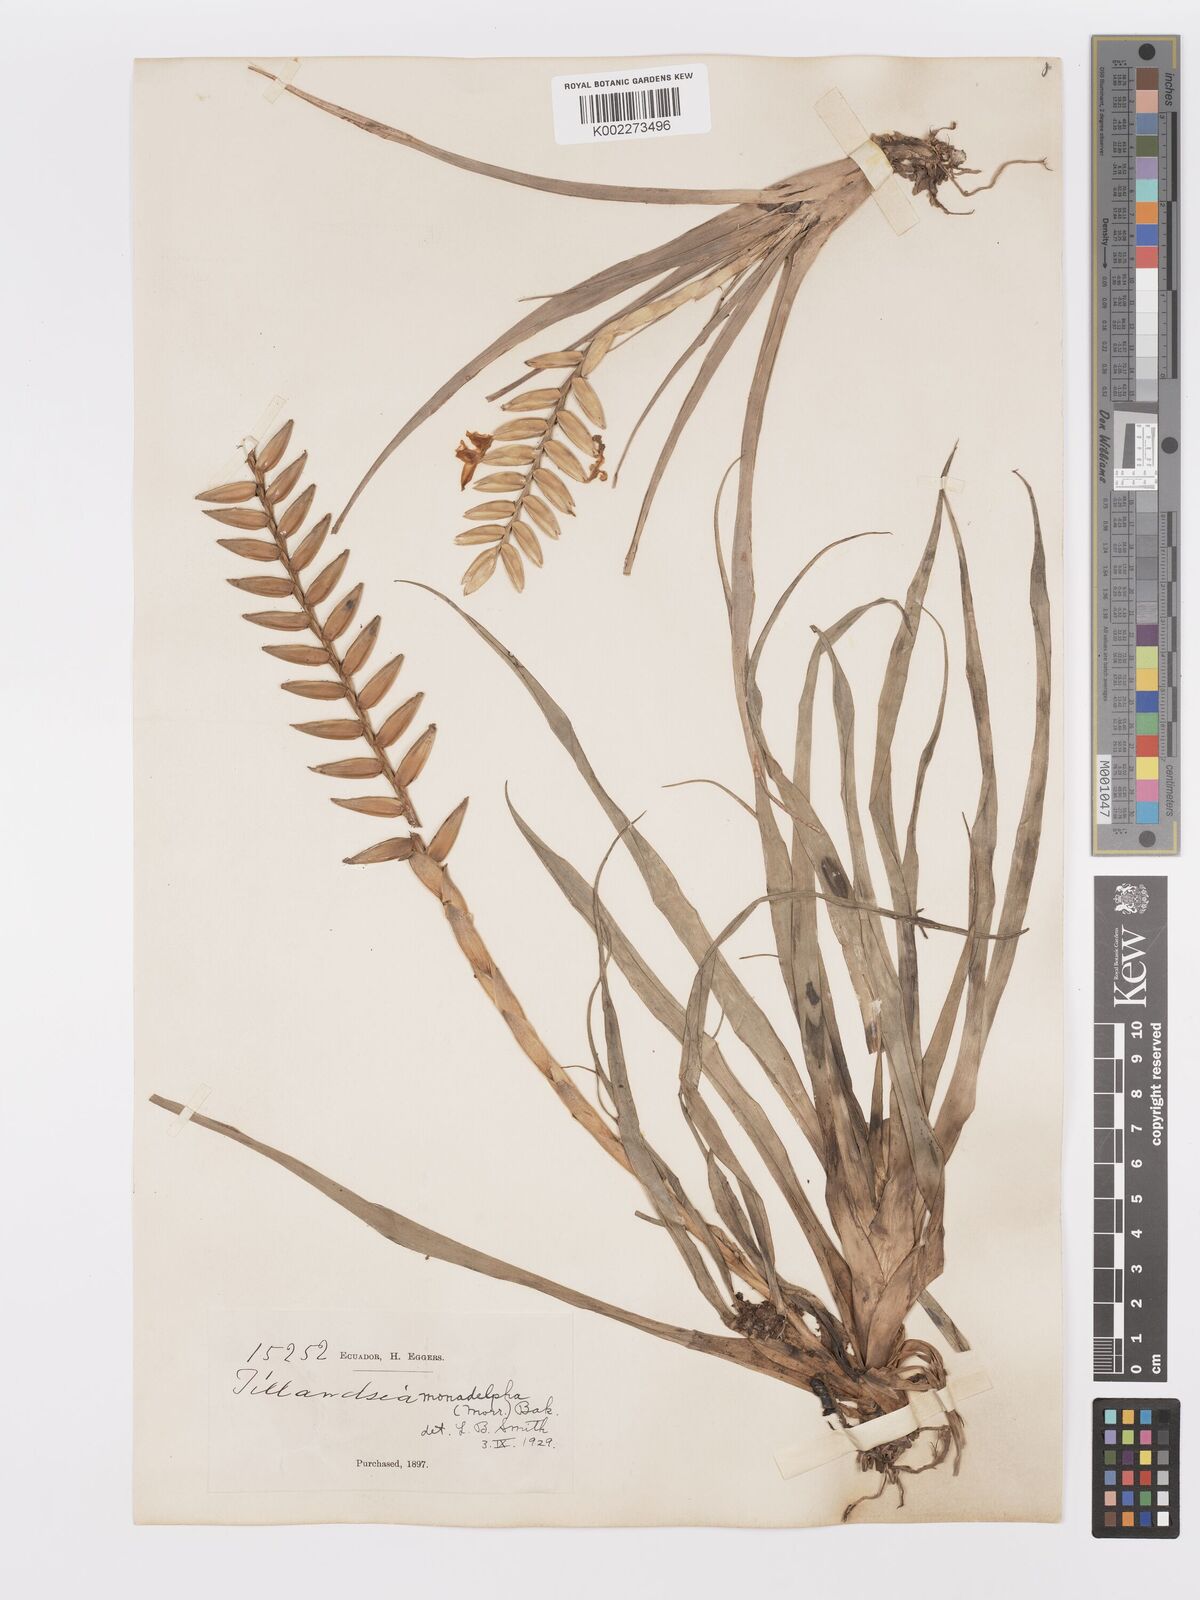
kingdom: Plantae
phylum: Tracheophyta
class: Liliopsida
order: Poales
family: Bromeliaceae
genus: Lemeltonia
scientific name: Lemeltonia monadelpha
